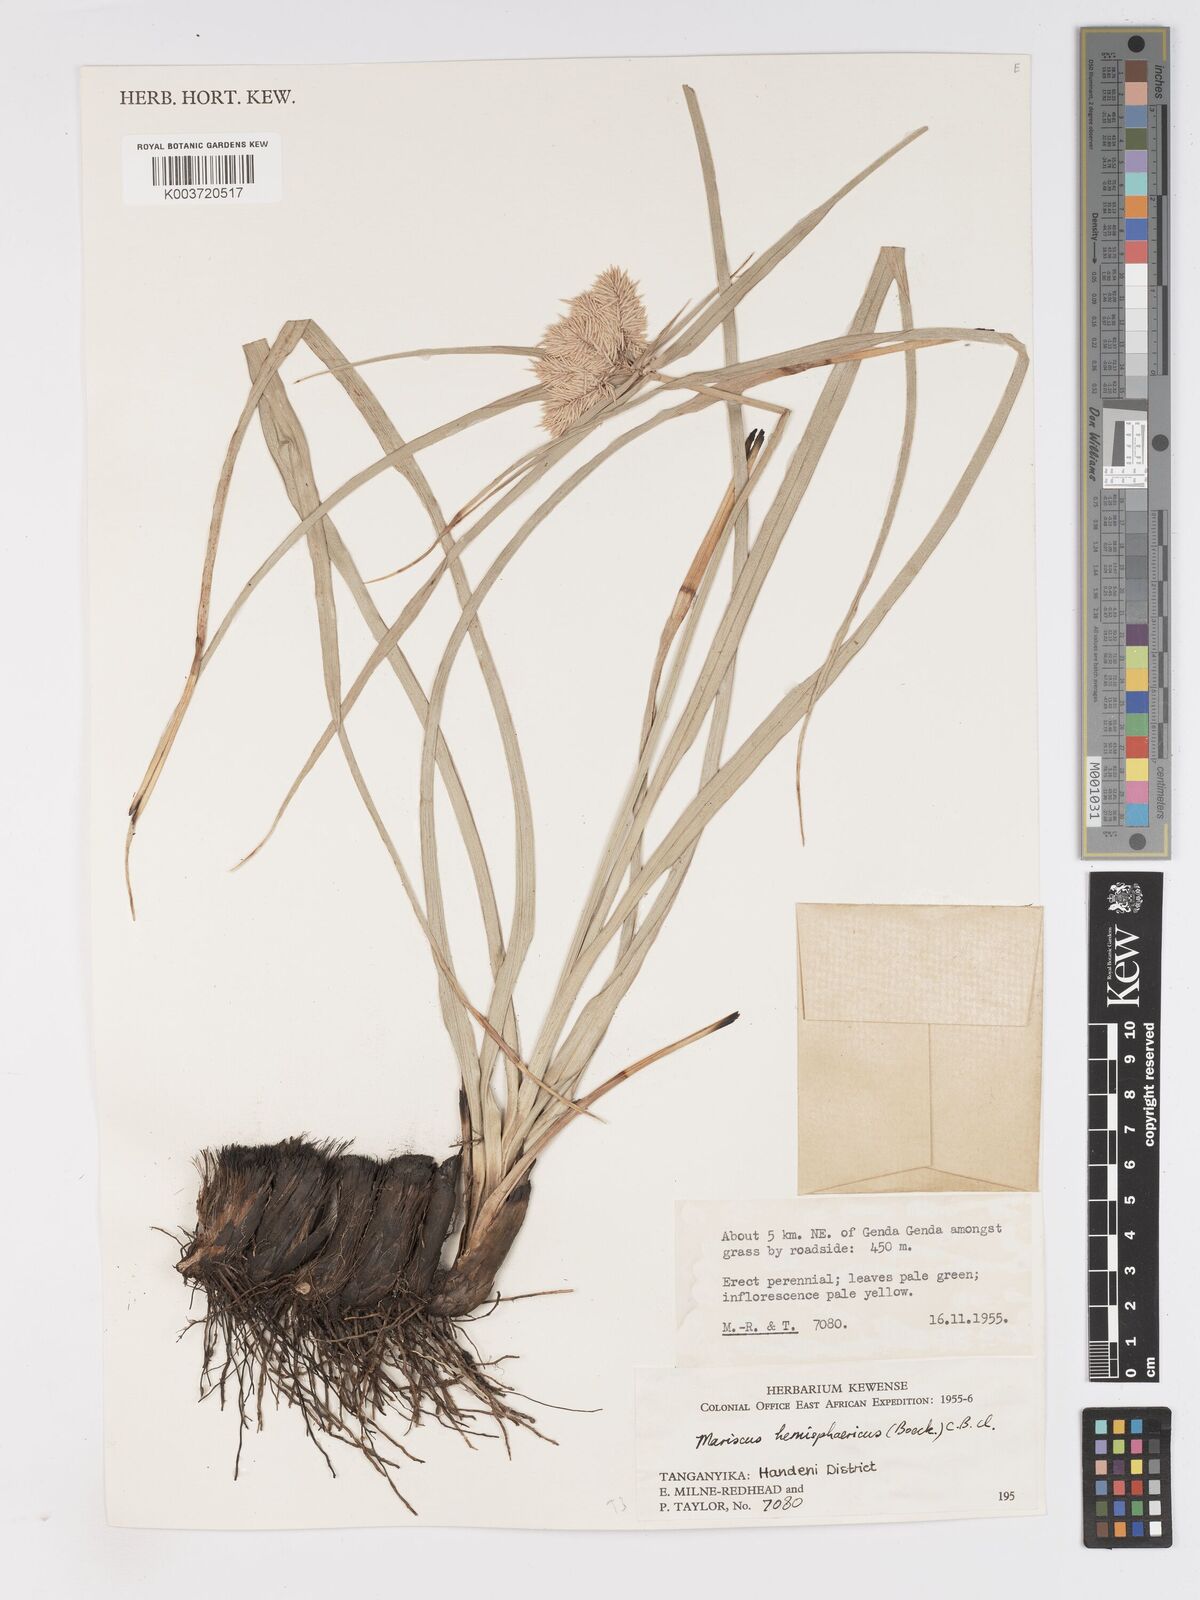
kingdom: Plantae
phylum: Tracheophyta
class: Liliopsida
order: Poales
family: Cyperaceae
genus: Cyperus
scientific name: Cyperus hemisphaericus
